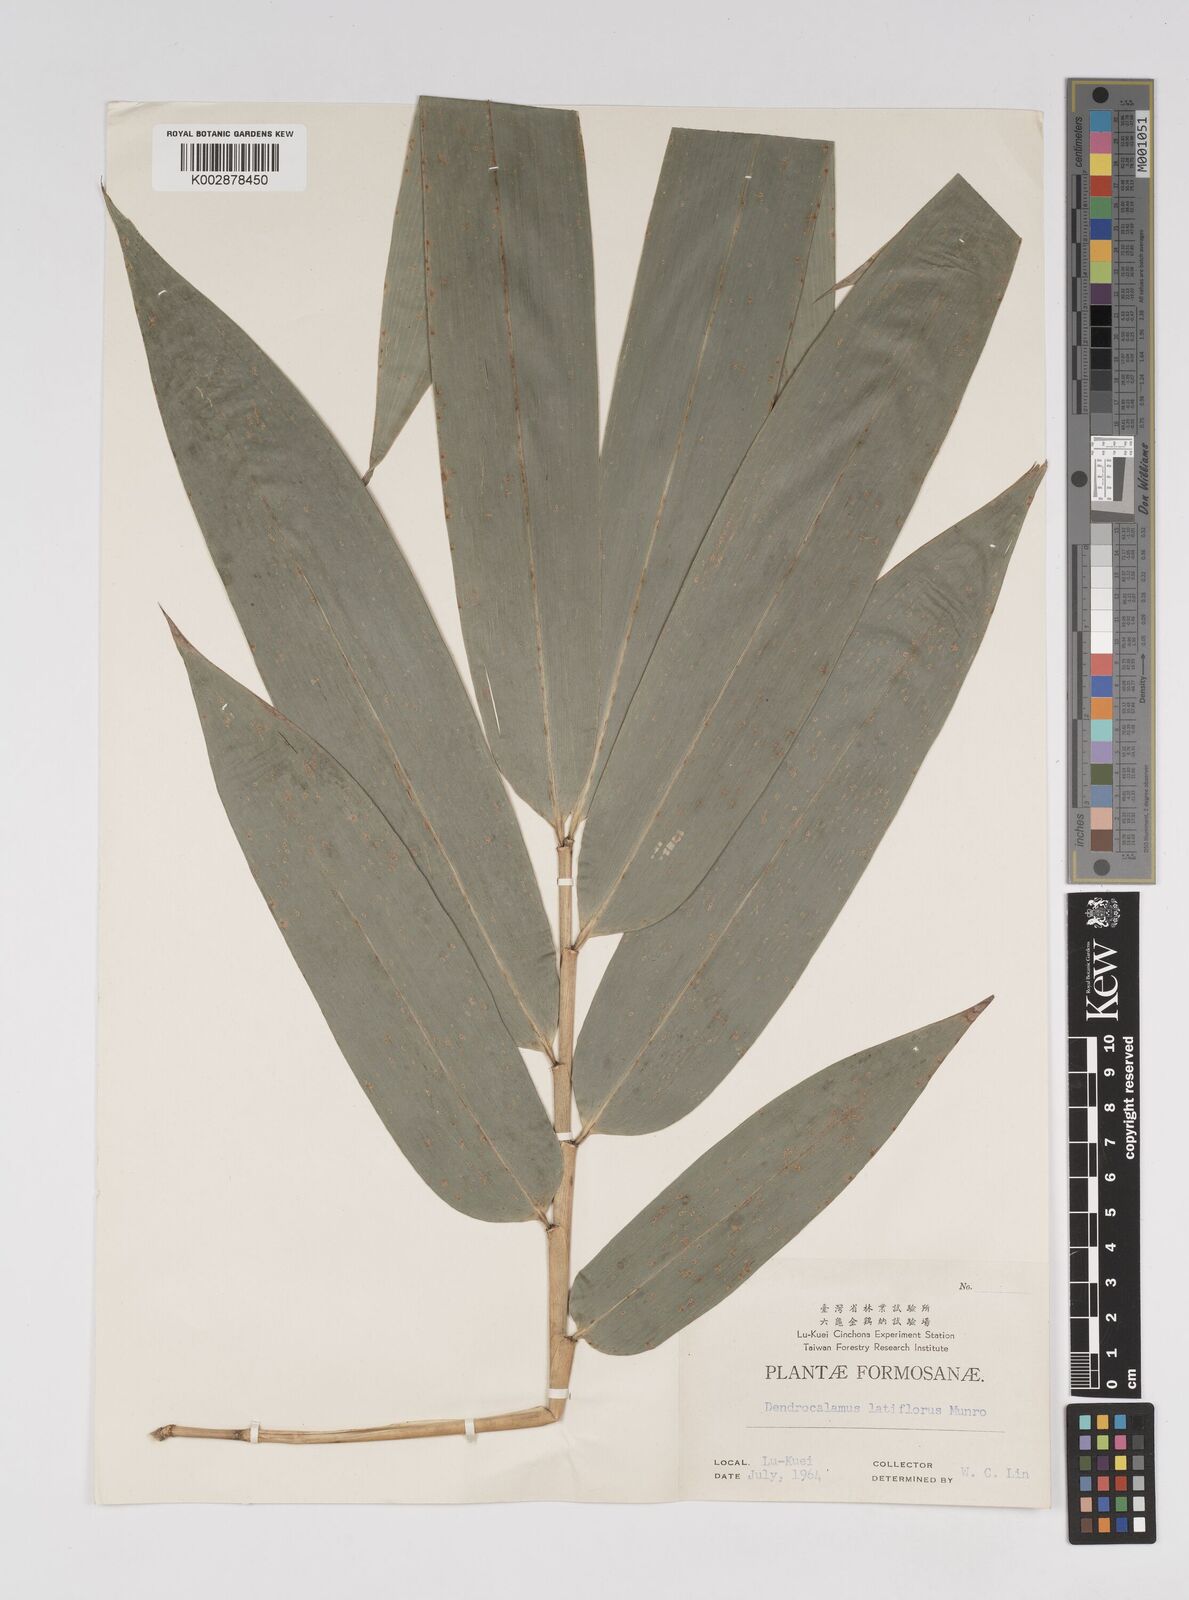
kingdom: Plantae
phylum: Tracheophyta
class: Liliopsida
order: Poales
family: Poaceae
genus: Dendrocalamus
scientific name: Dendrocalamus latiflorus
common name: Giant bamboo
